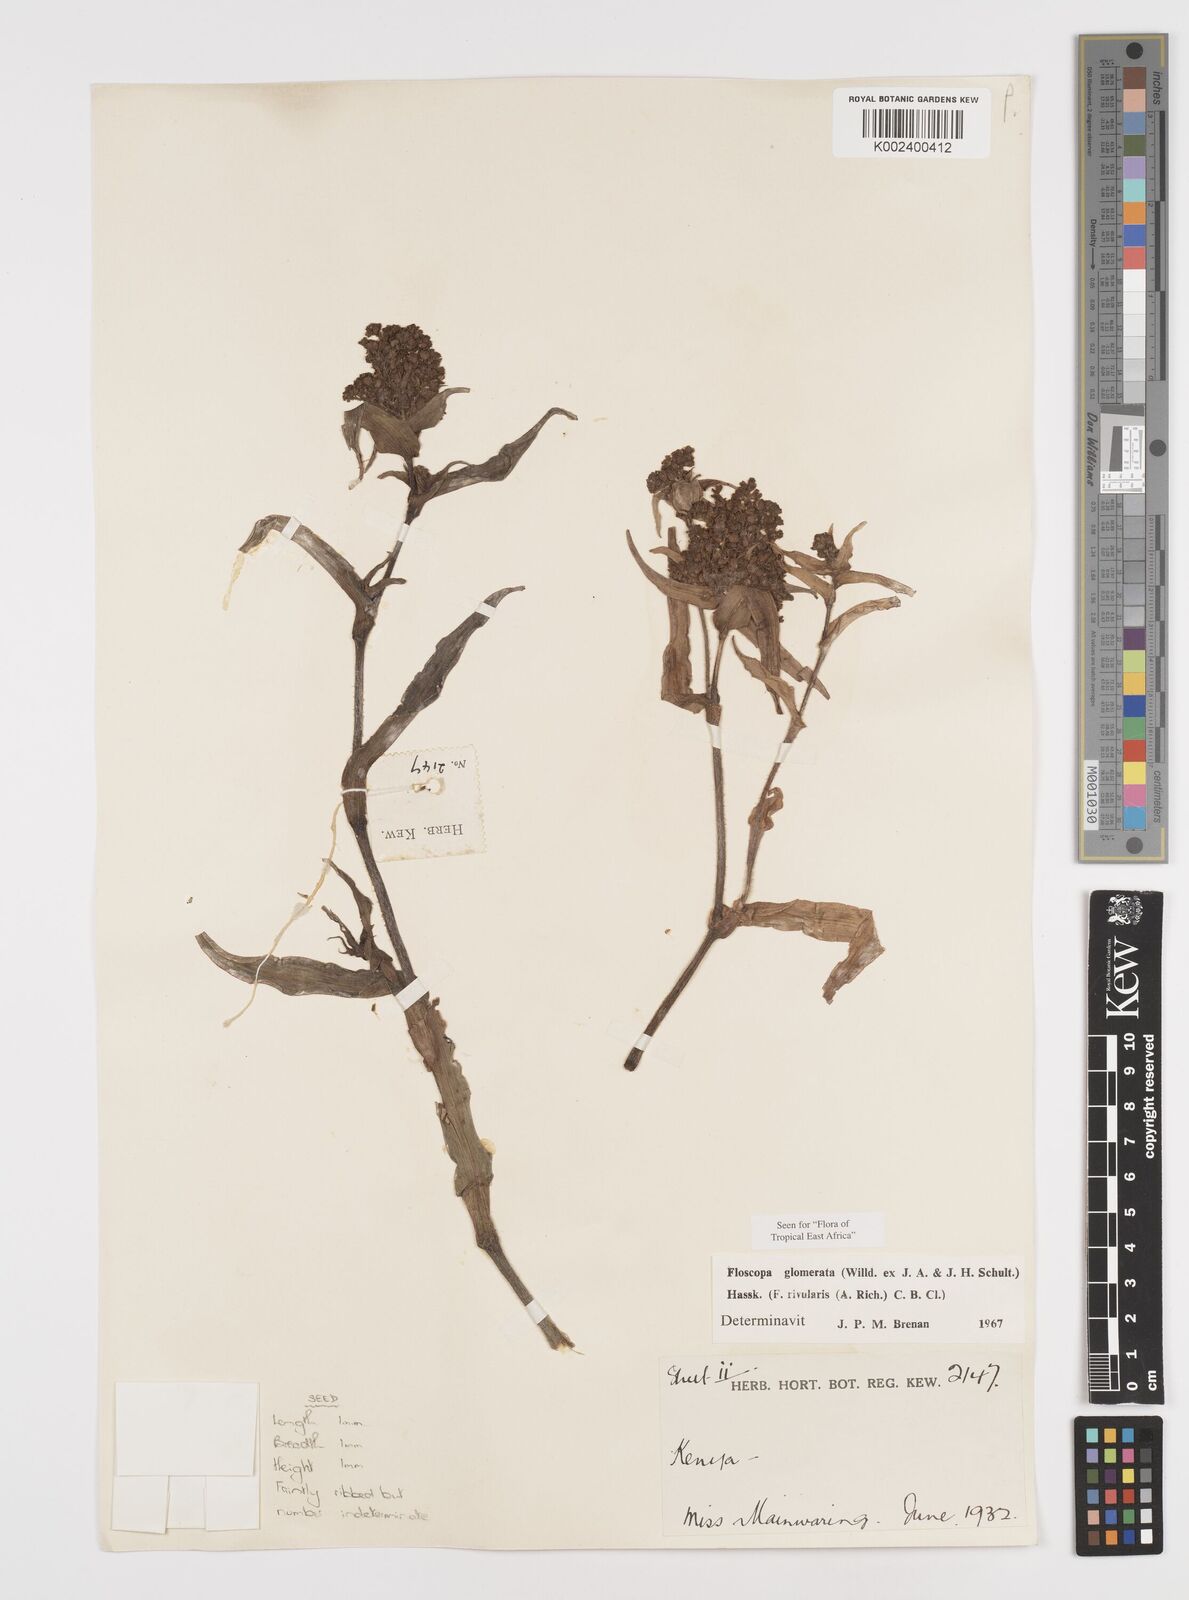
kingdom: Plantae
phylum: Tracheophyta
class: Liliopsida
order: Commelinales
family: Commelinaceae
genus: Floscopa
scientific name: Floscopa glomerata
